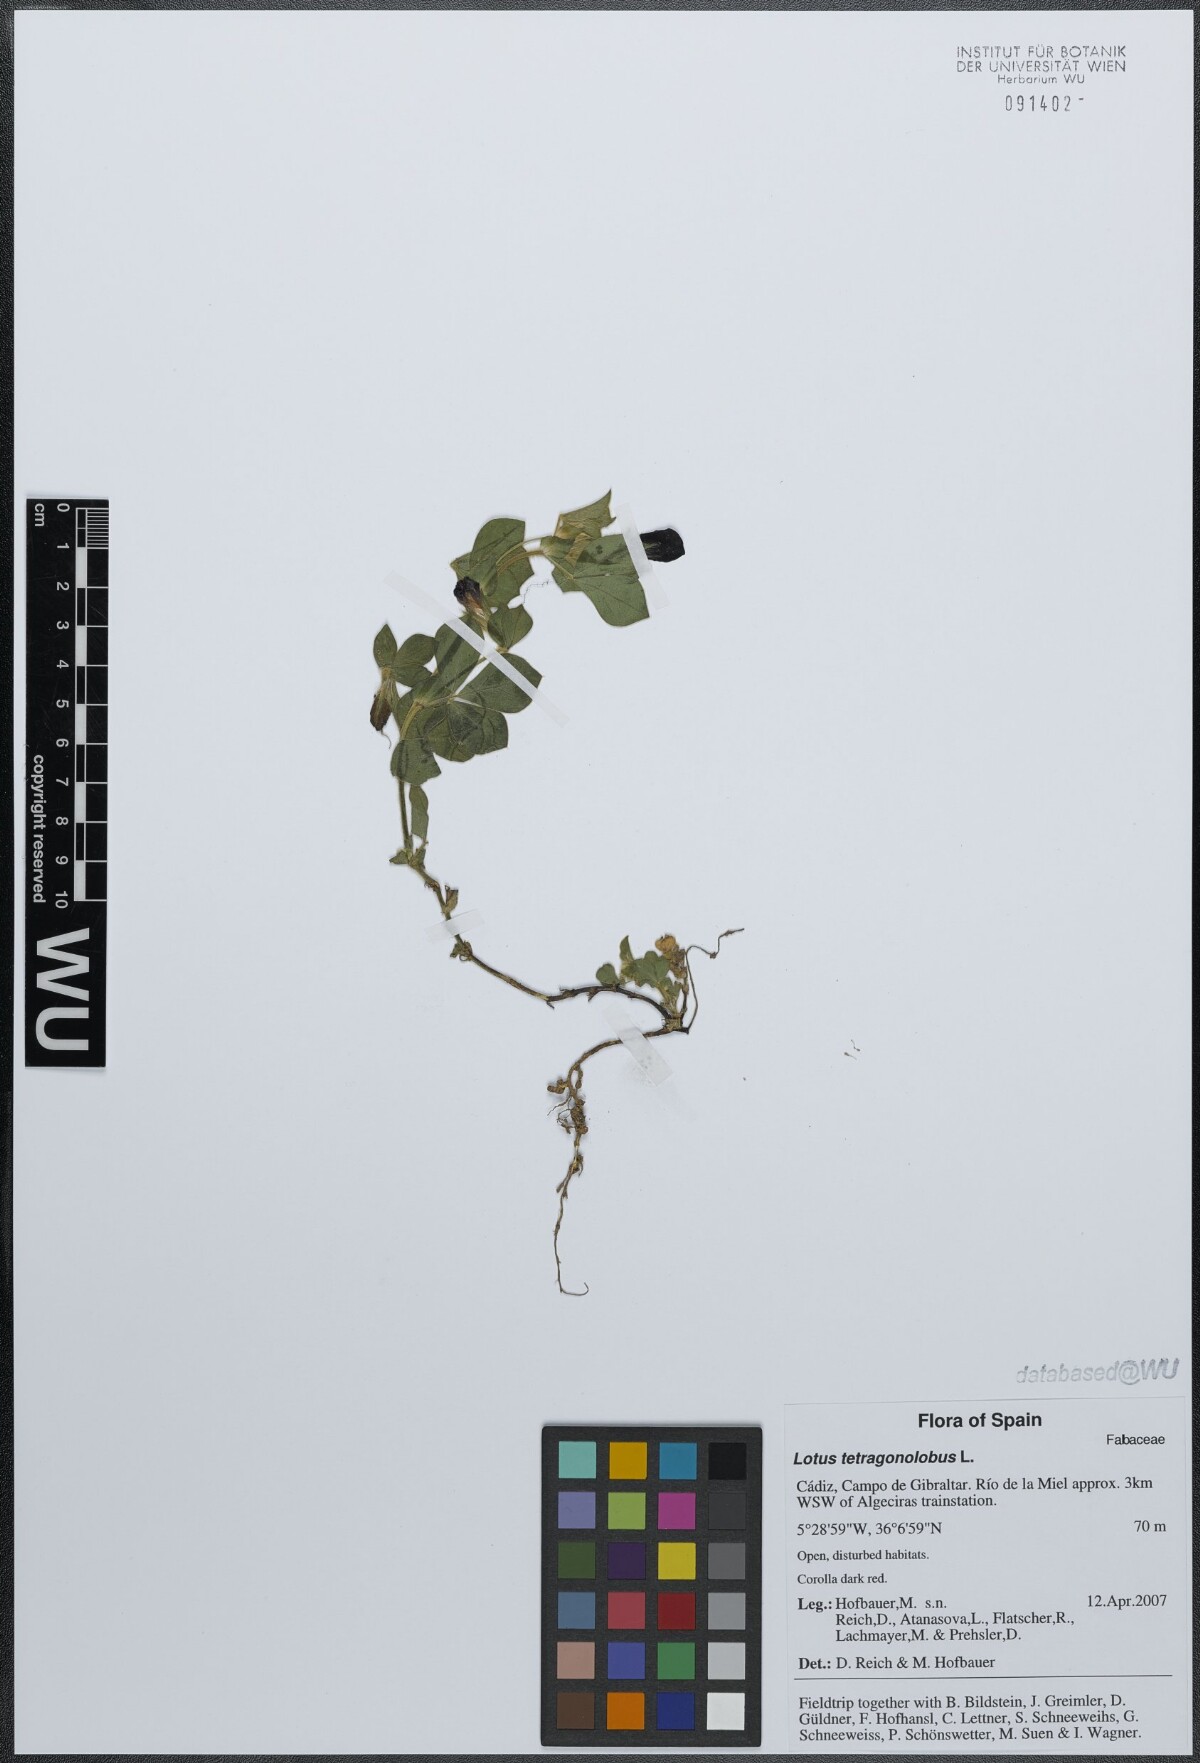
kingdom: Plantae
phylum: Tracheophyta
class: Magnoliopsida
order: Fabales
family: Fabaceae
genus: Lotus
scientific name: Lotus tetragonolobus
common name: Asparagus-pea
